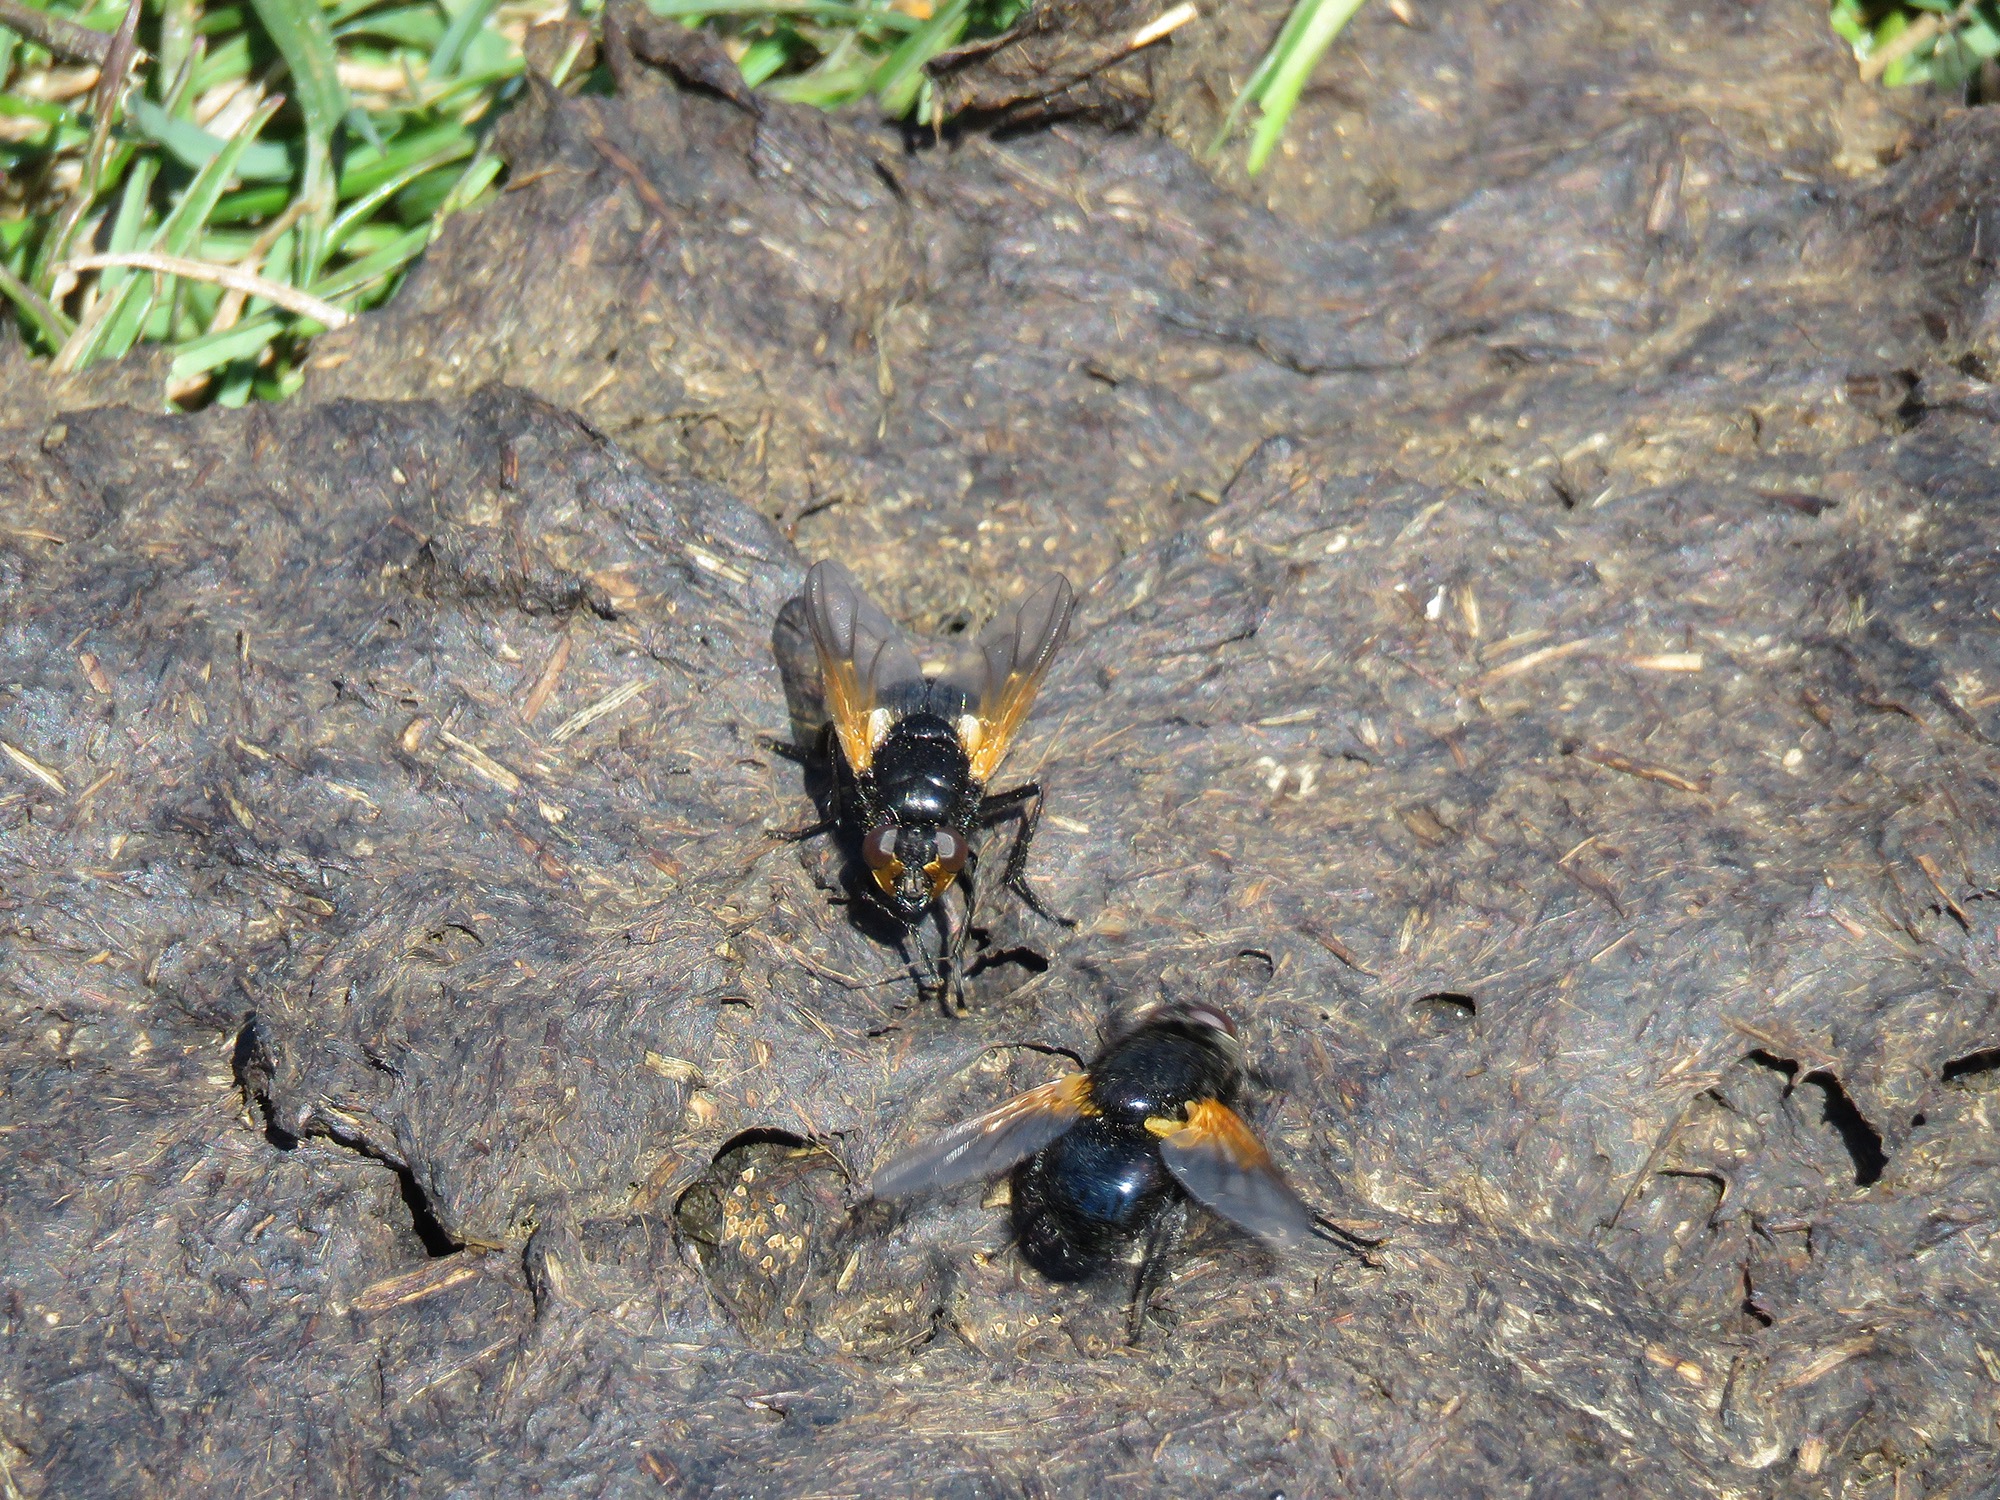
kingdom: Animalia
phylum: Arthropoda
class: Insecta
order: Diptera
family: Muscidae
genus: Mesembrina
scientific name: Mesembrina meridiana
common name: Gulvinget flue
